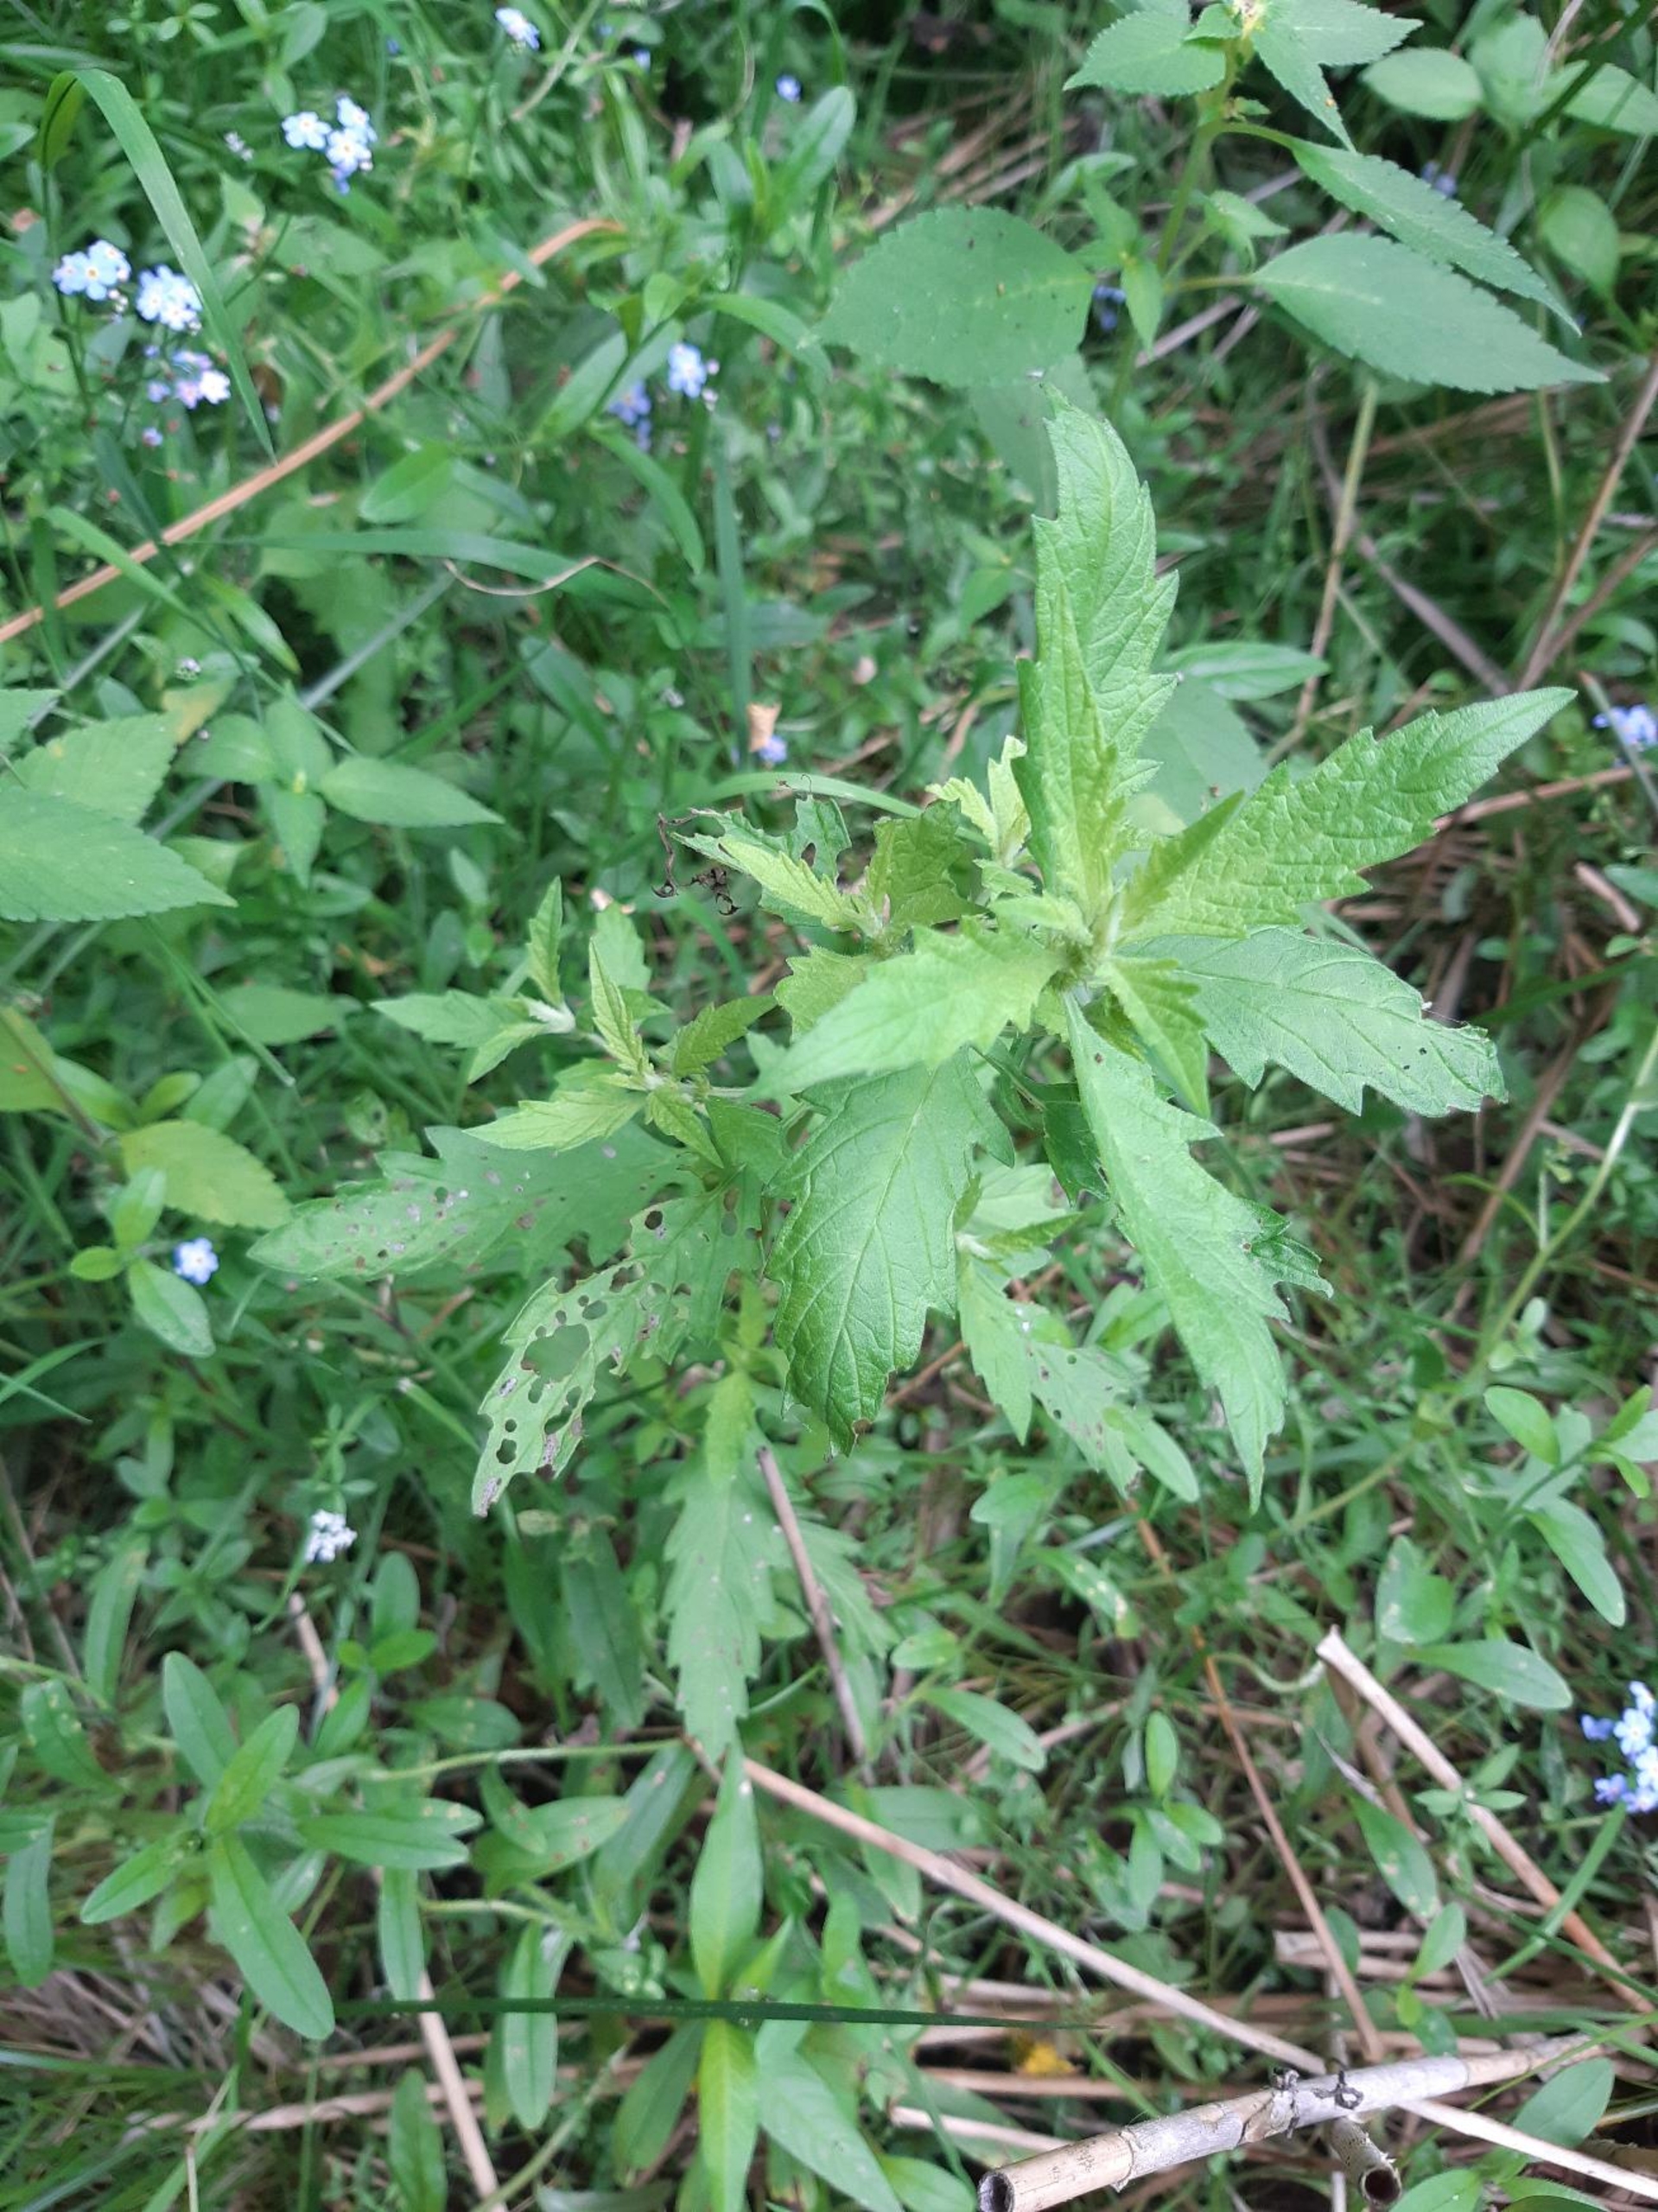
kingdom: Plantae
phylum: Tracheophyta
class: Magnoliopsida
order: Lamiales
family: Lamiaceae
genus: Lycopus
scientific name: Lycopus europaeus
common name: Sværtevæld
